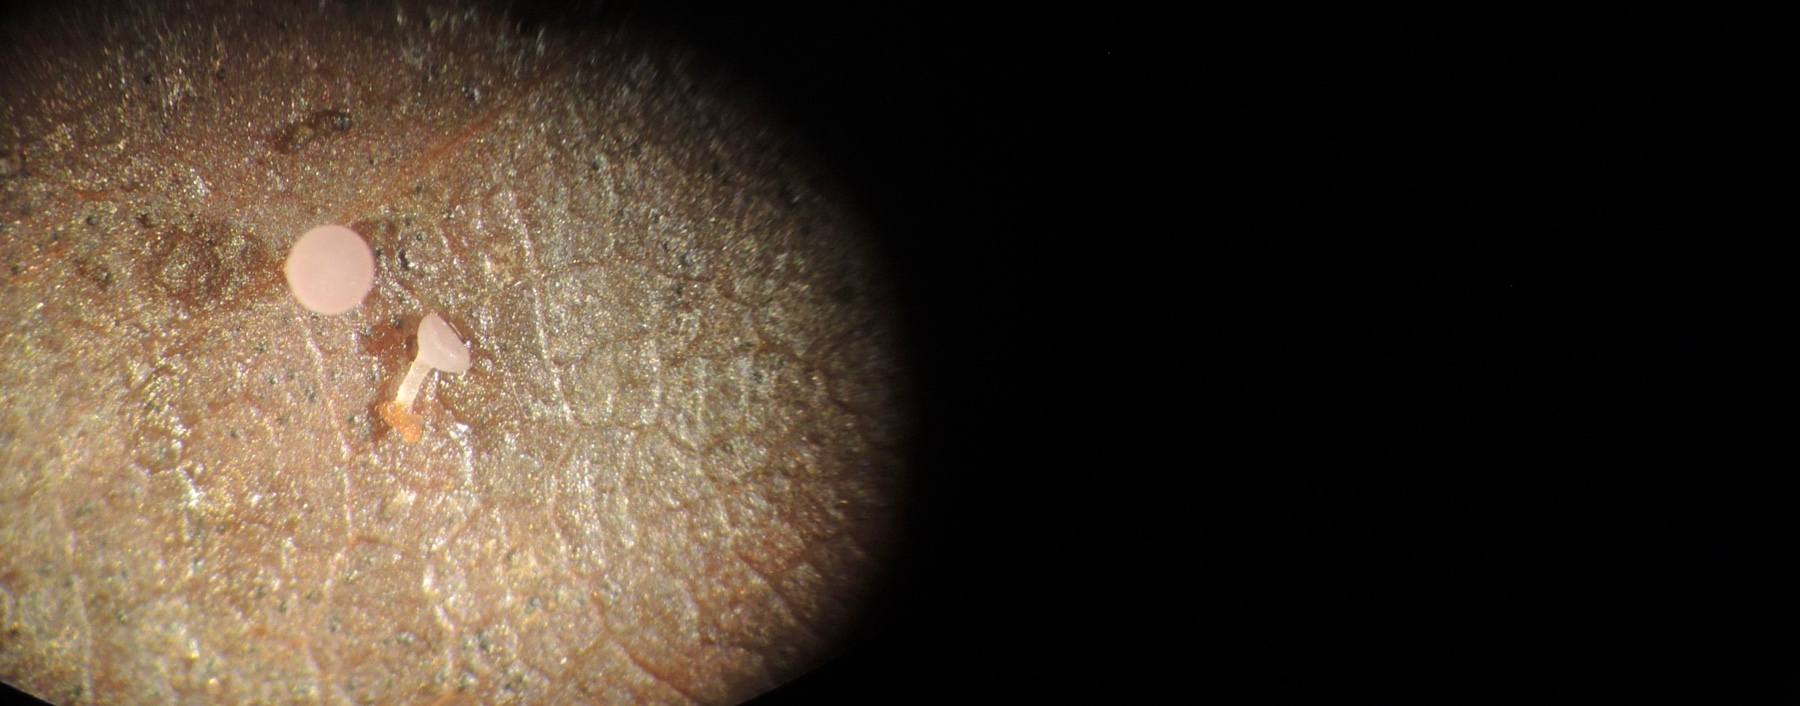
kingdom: Fungi
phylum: Ascomycota
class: Leotiomycetes
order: Helotiales
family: Helotiaceae
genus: Hymenoscyphus
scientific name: Hymenoscyphus syringicolor
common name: lyslilla stilkskive
